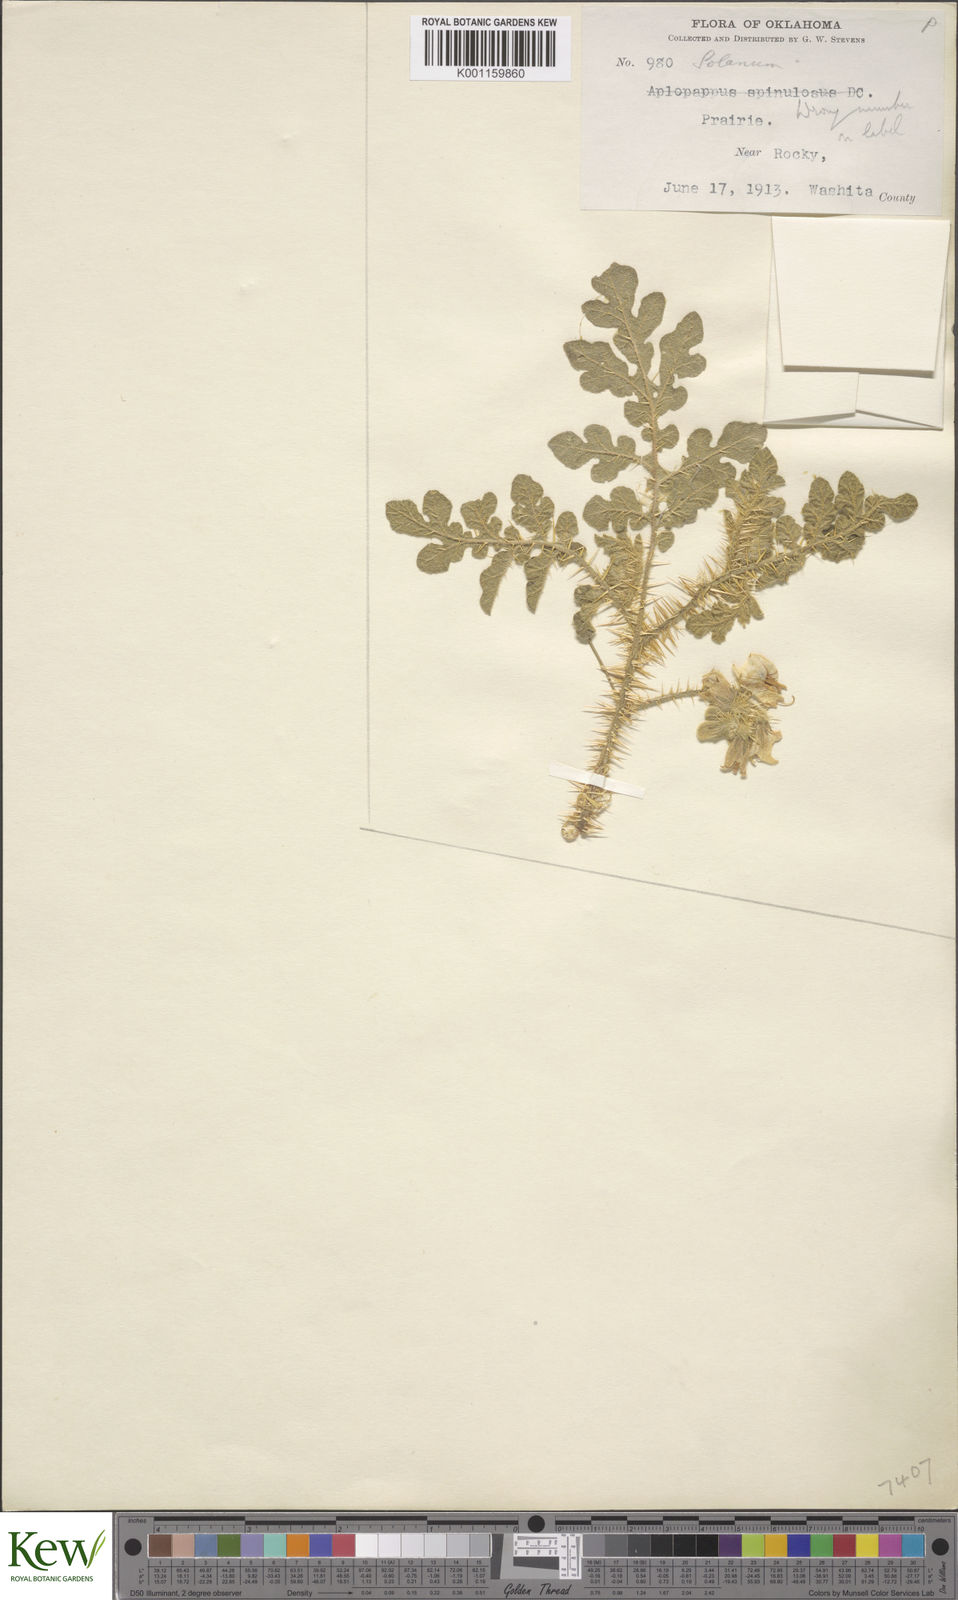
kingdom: Plantae
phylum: Tracheophyta
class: Magnoliopsida
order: Solanales
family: Solanaceae
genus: Solanum
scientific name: Solanum angustifolium
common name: Buffalobur nightshade
